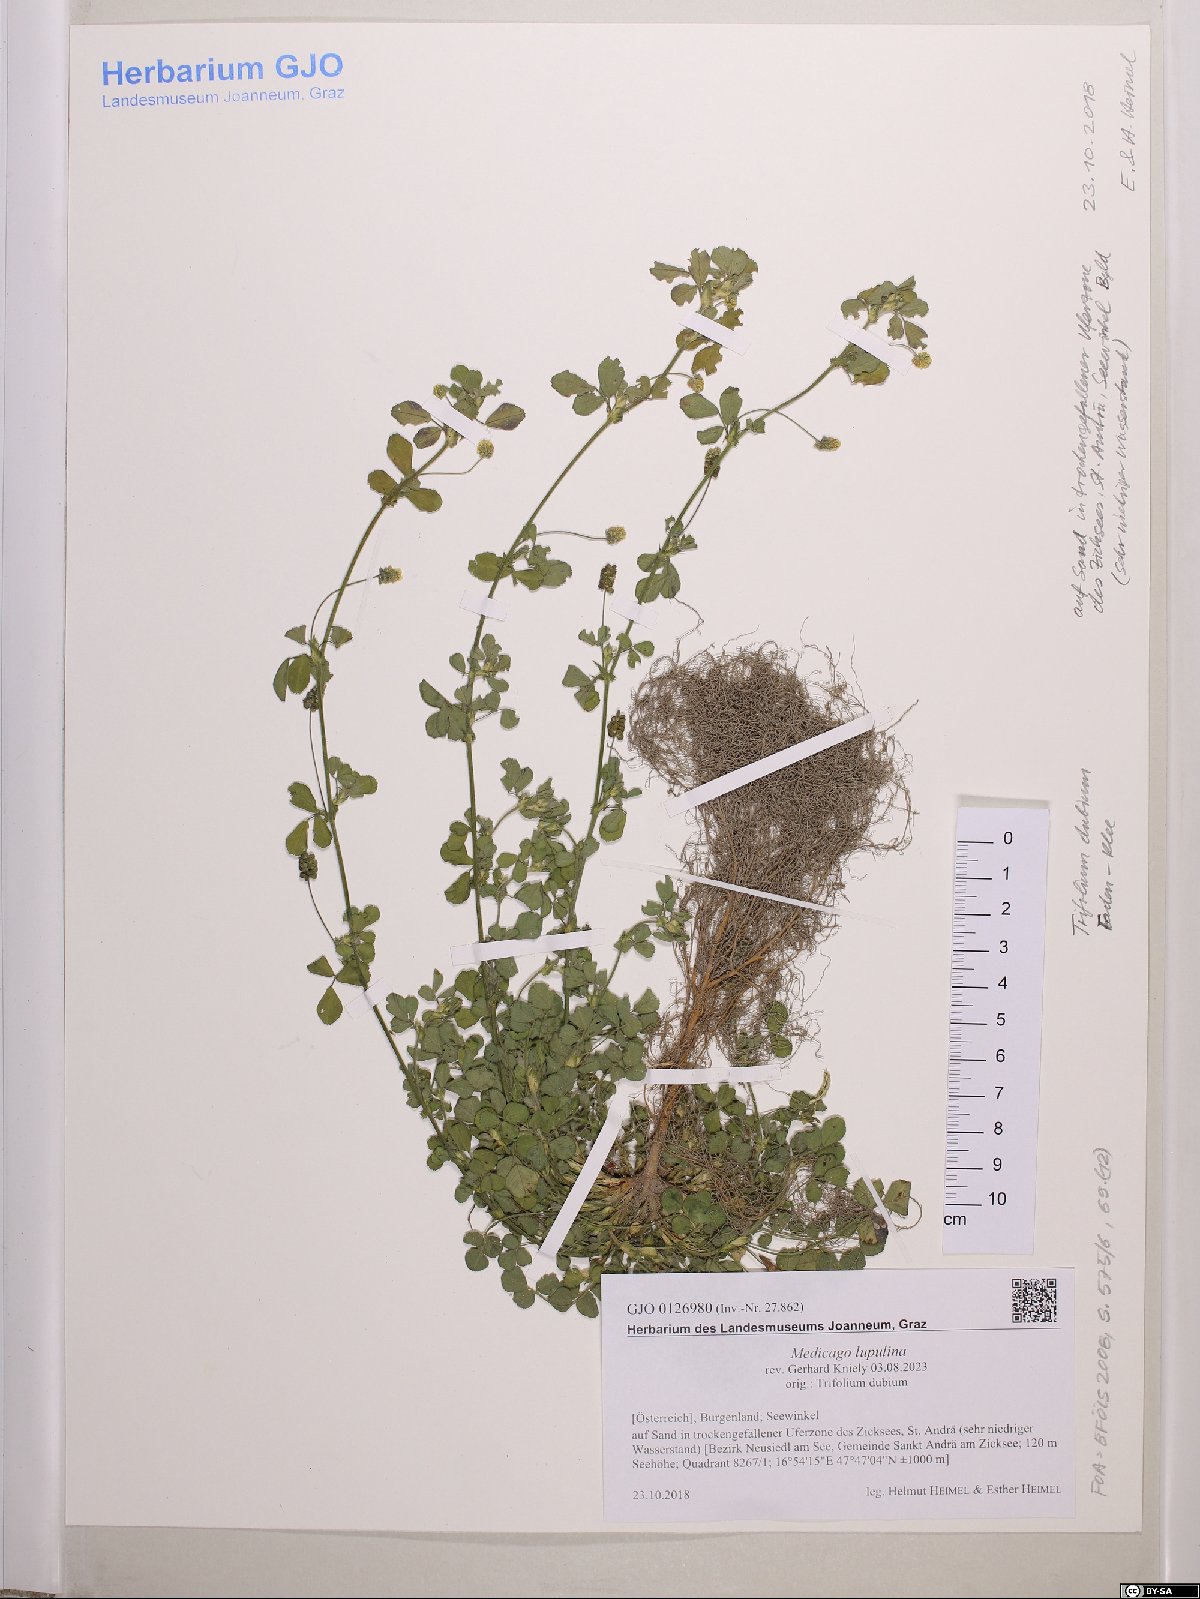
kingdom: Plantae
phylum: Tracheophyta
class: Magnoliopsida
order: Fabales
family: Fabaceae
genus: Medicago
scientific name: Medicago lupulina
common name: Black medick
